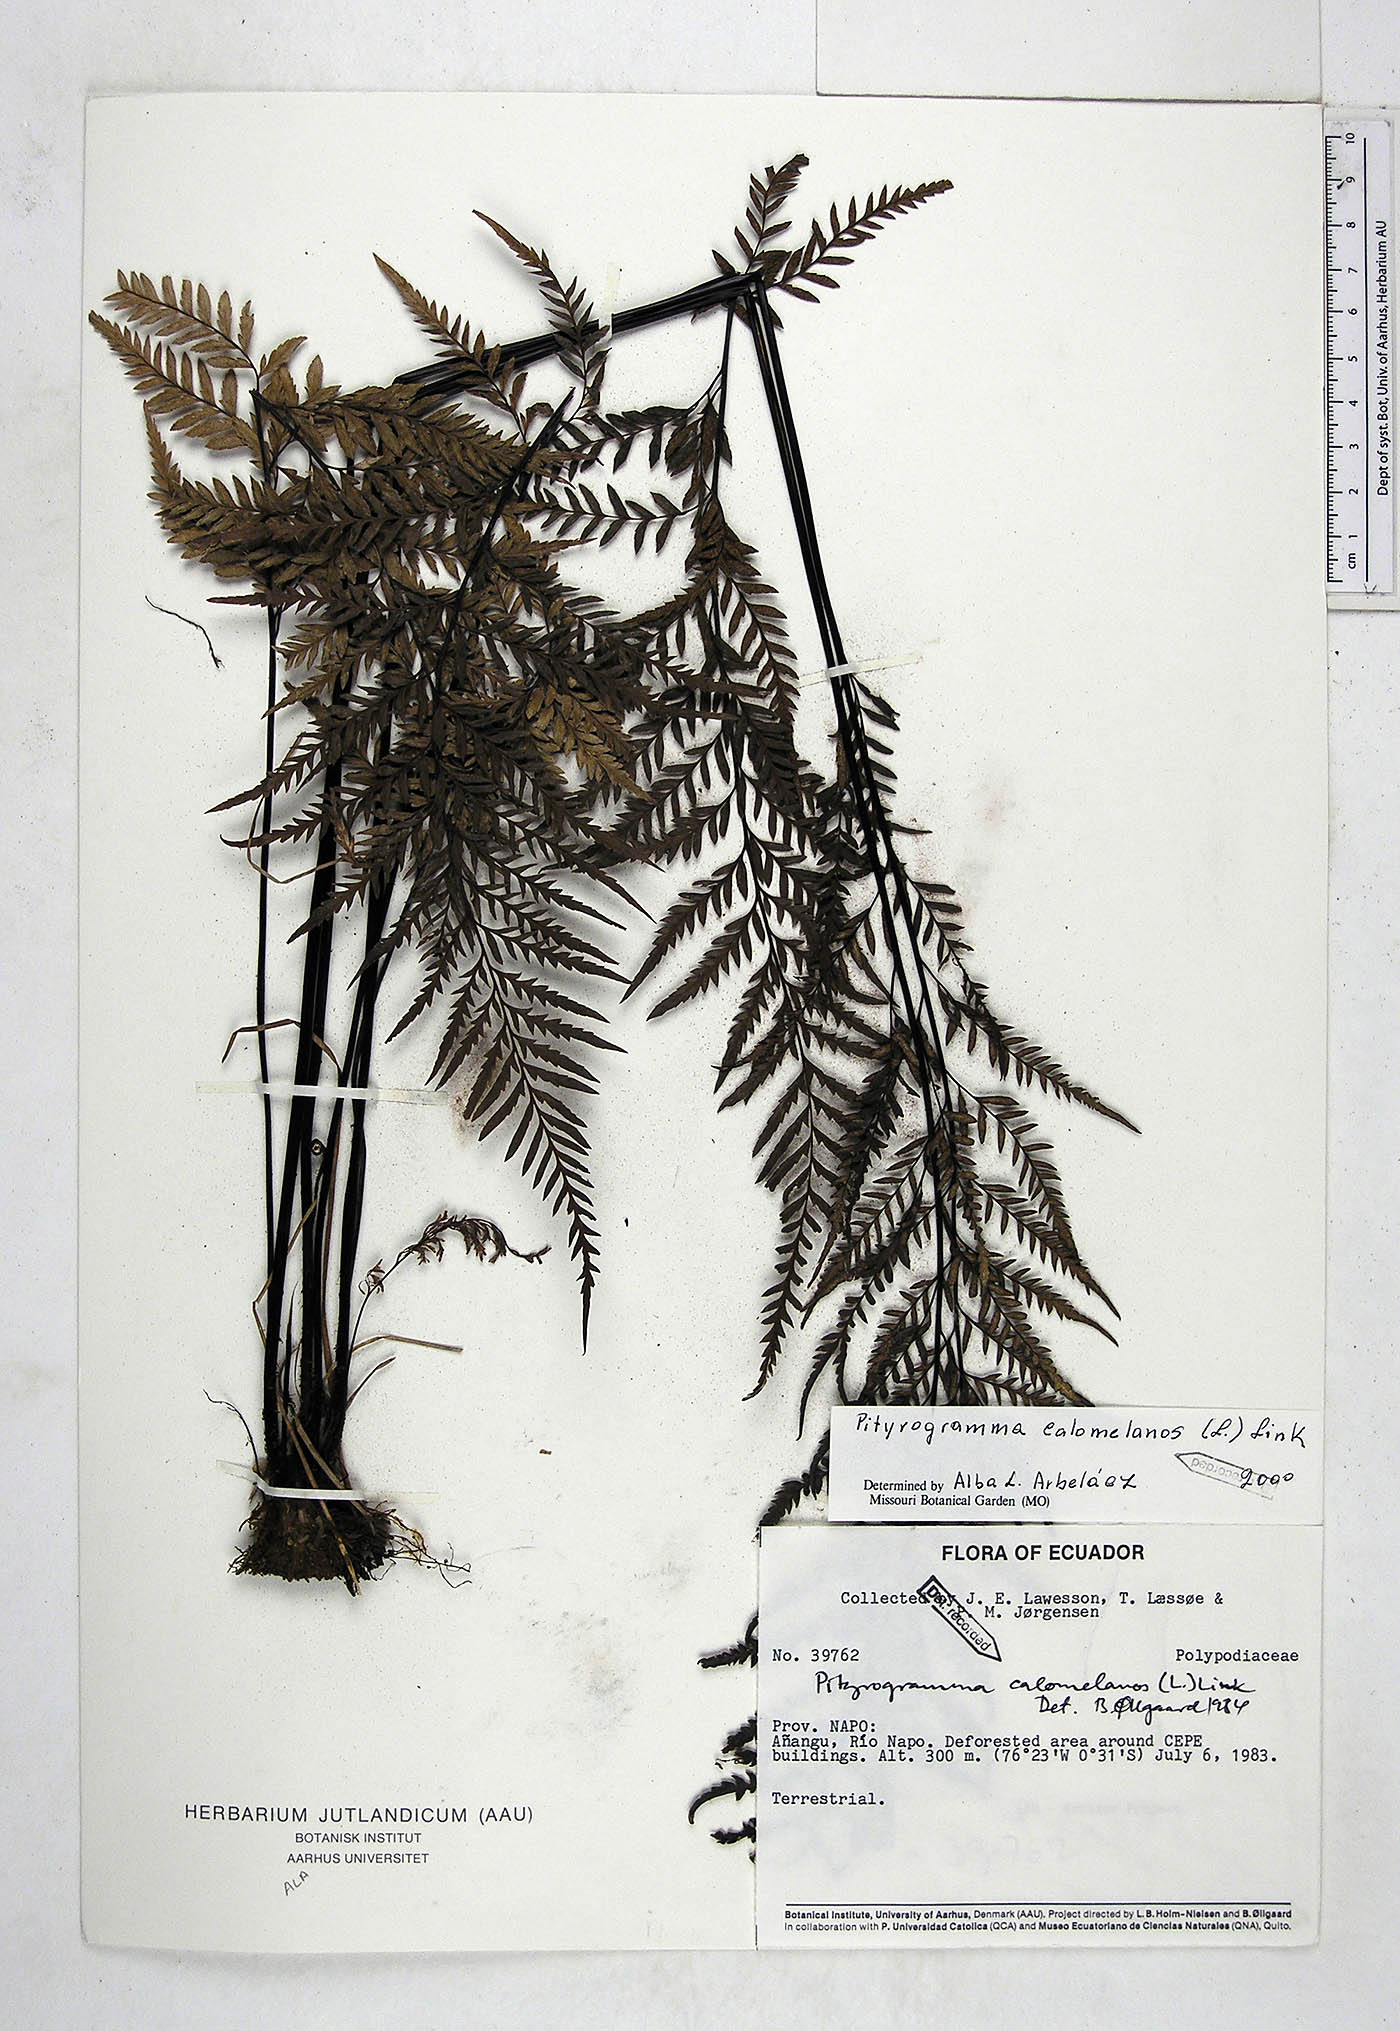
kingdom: Plantae
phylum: Tracheophyta
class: Polypodiopsida
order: Polypodiales
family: Pteridaceae
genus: Pityrogramma
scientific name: Pityrogramma calomelanos
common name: Dixie silverback fern
